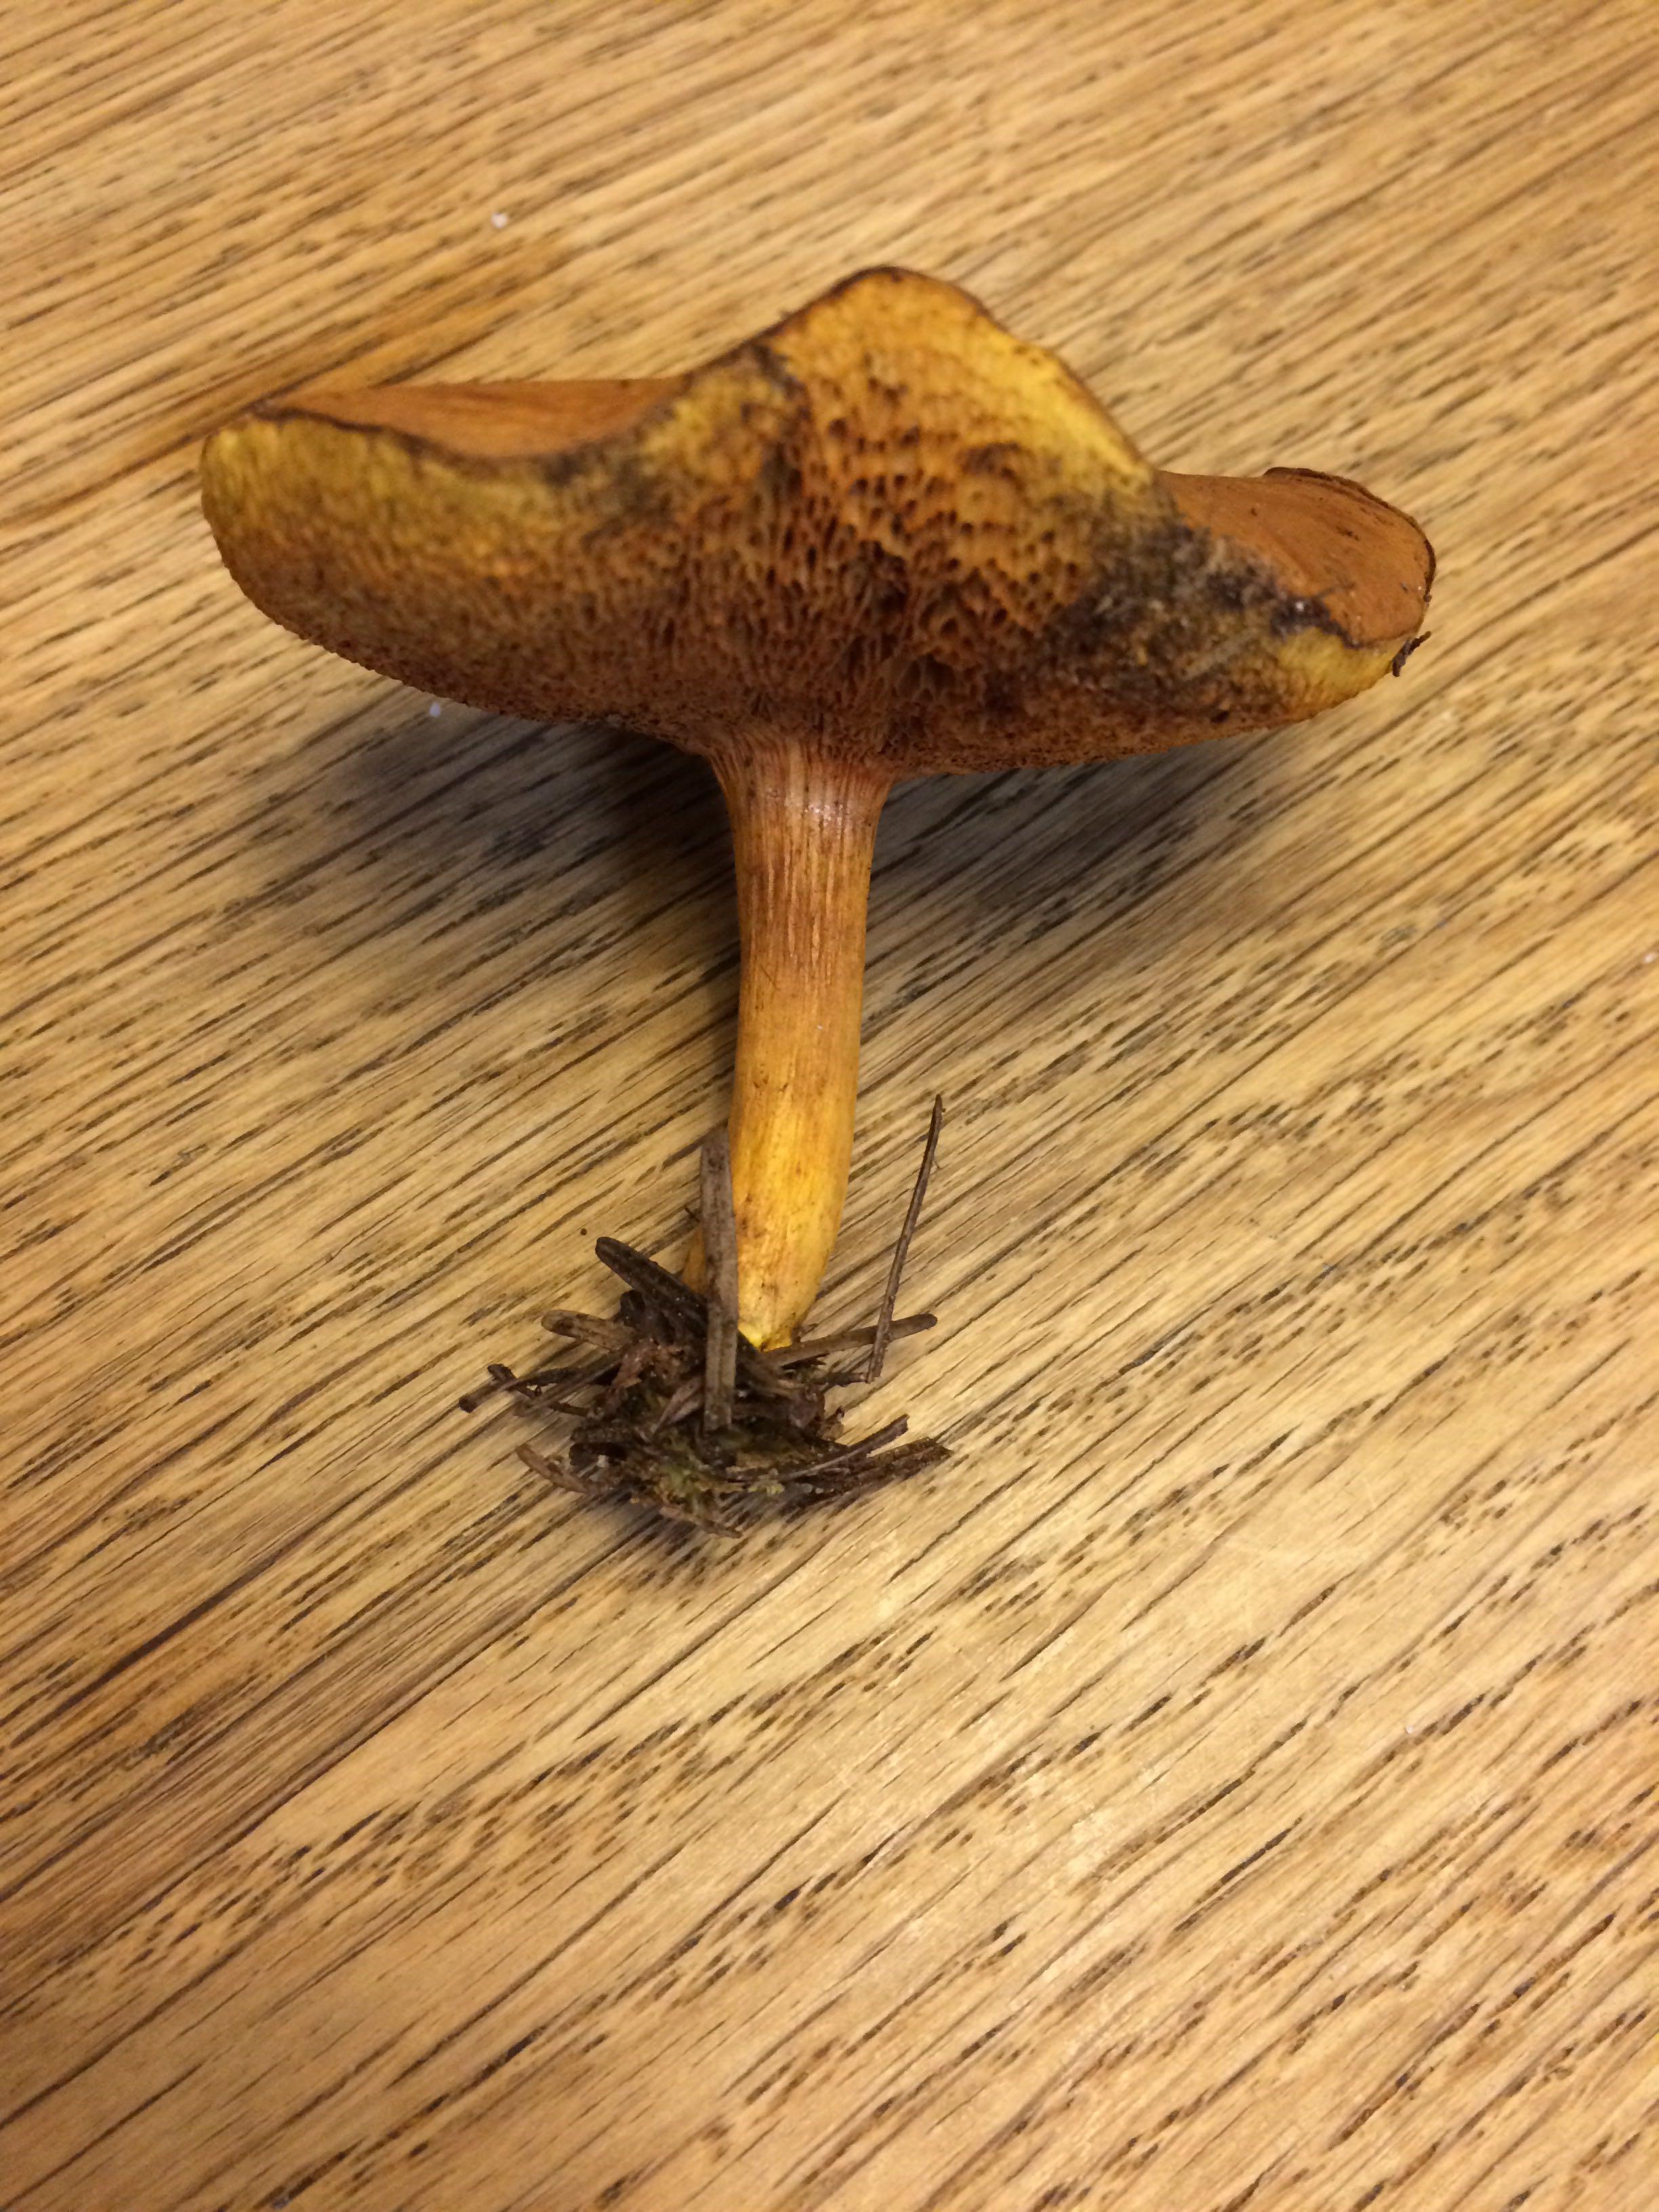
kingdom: Fungi
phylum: Basidiomycota
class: Agaricomycetes
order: Boletales
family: Boletaceae
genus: Chalciporus
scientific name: Chalciporus piperatus
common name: peberrørhat
